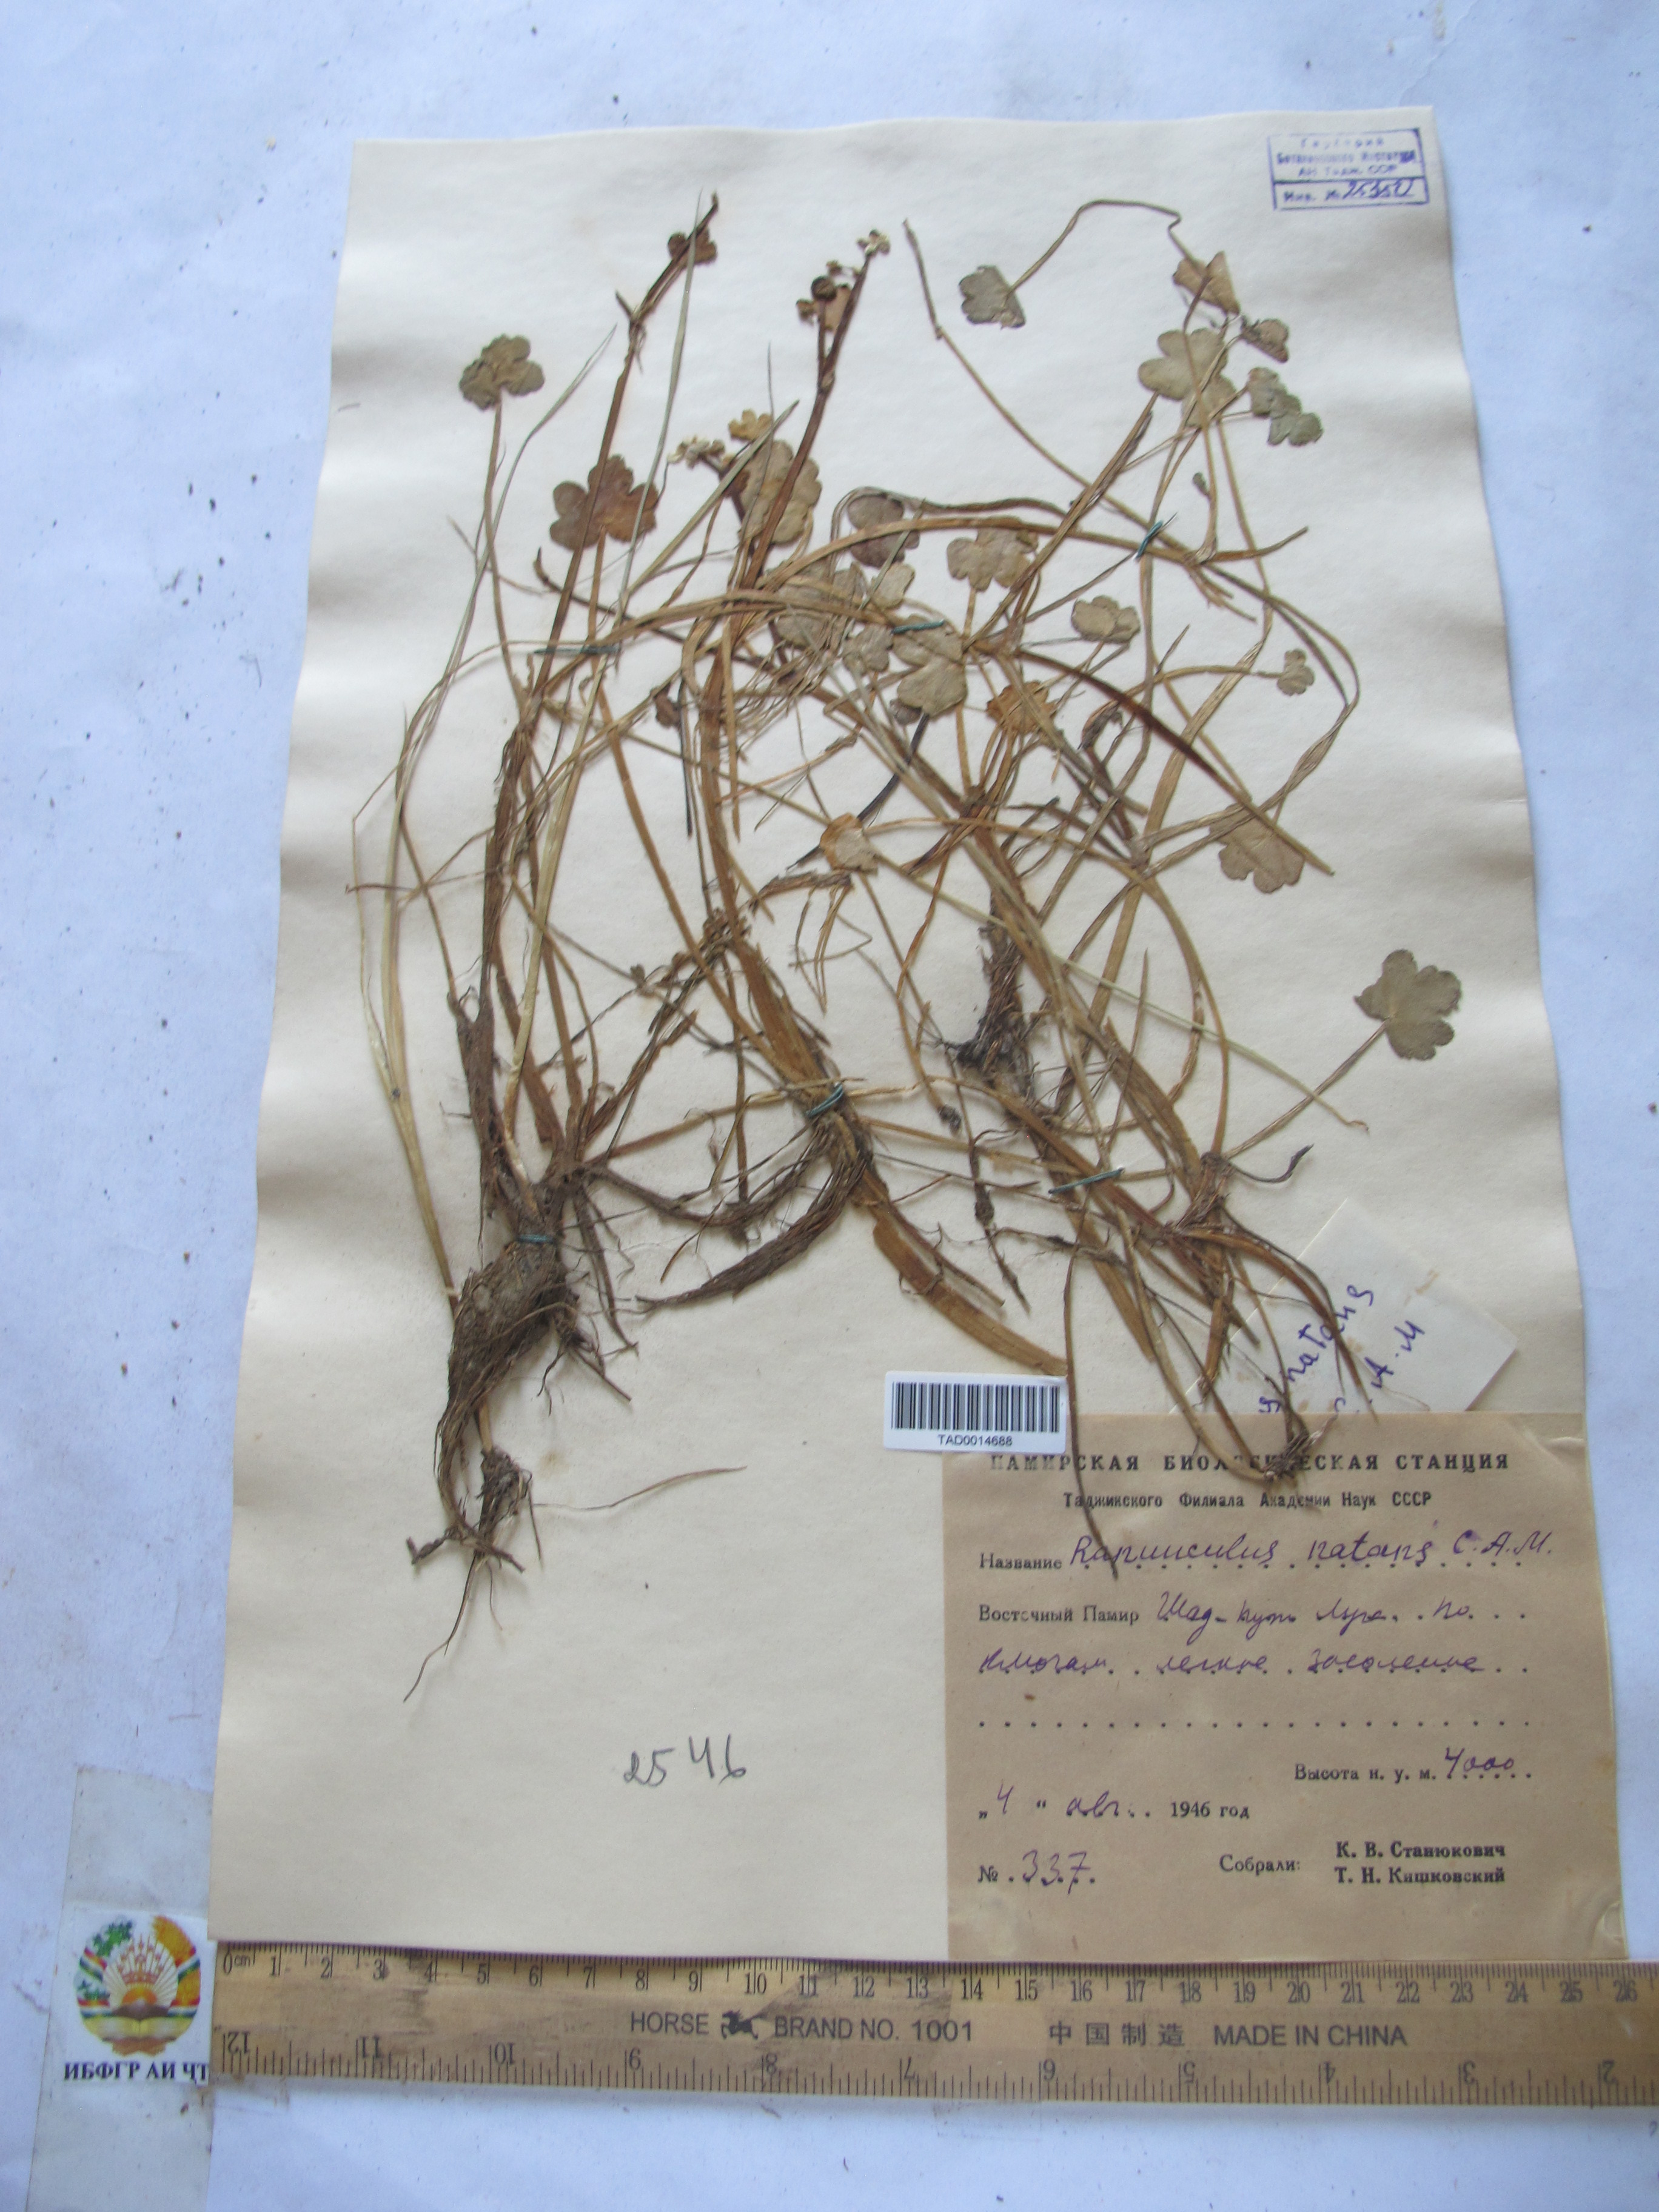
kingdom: Plantae
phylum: Tracheophyta
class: Magnoliopsida
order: Ranunculales
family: Ranunculaceae
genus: Ranunculus
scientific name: Ranunculus natans
